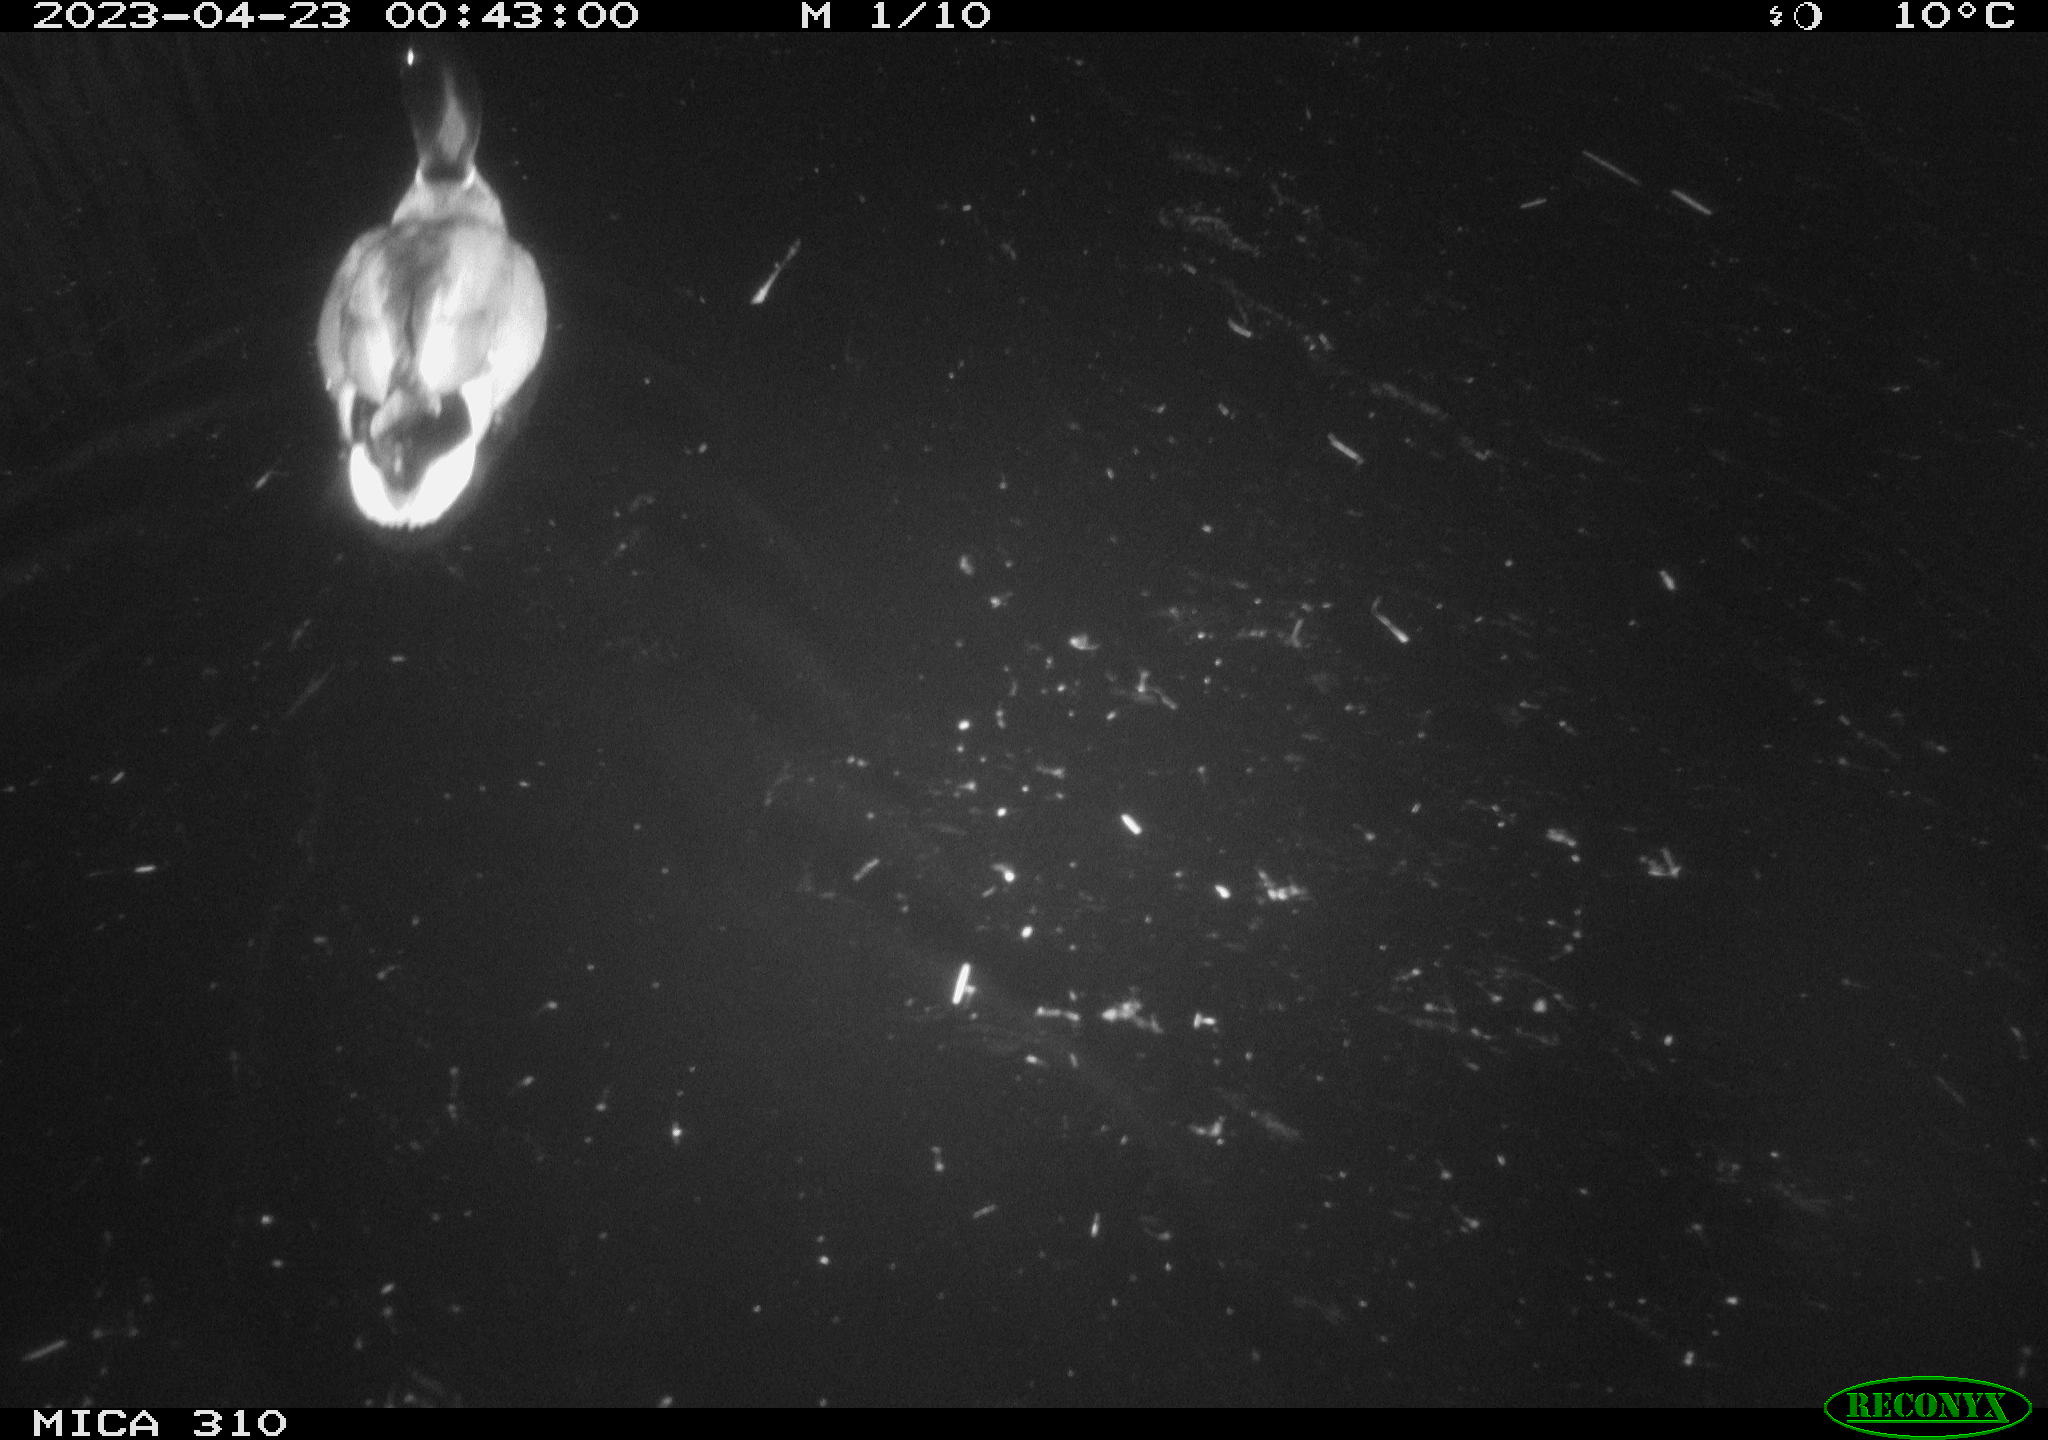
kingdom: Animalia
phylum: Chordata
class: Aves
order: Anseriformes
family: Anatidae
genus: Anas
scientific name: Anas
